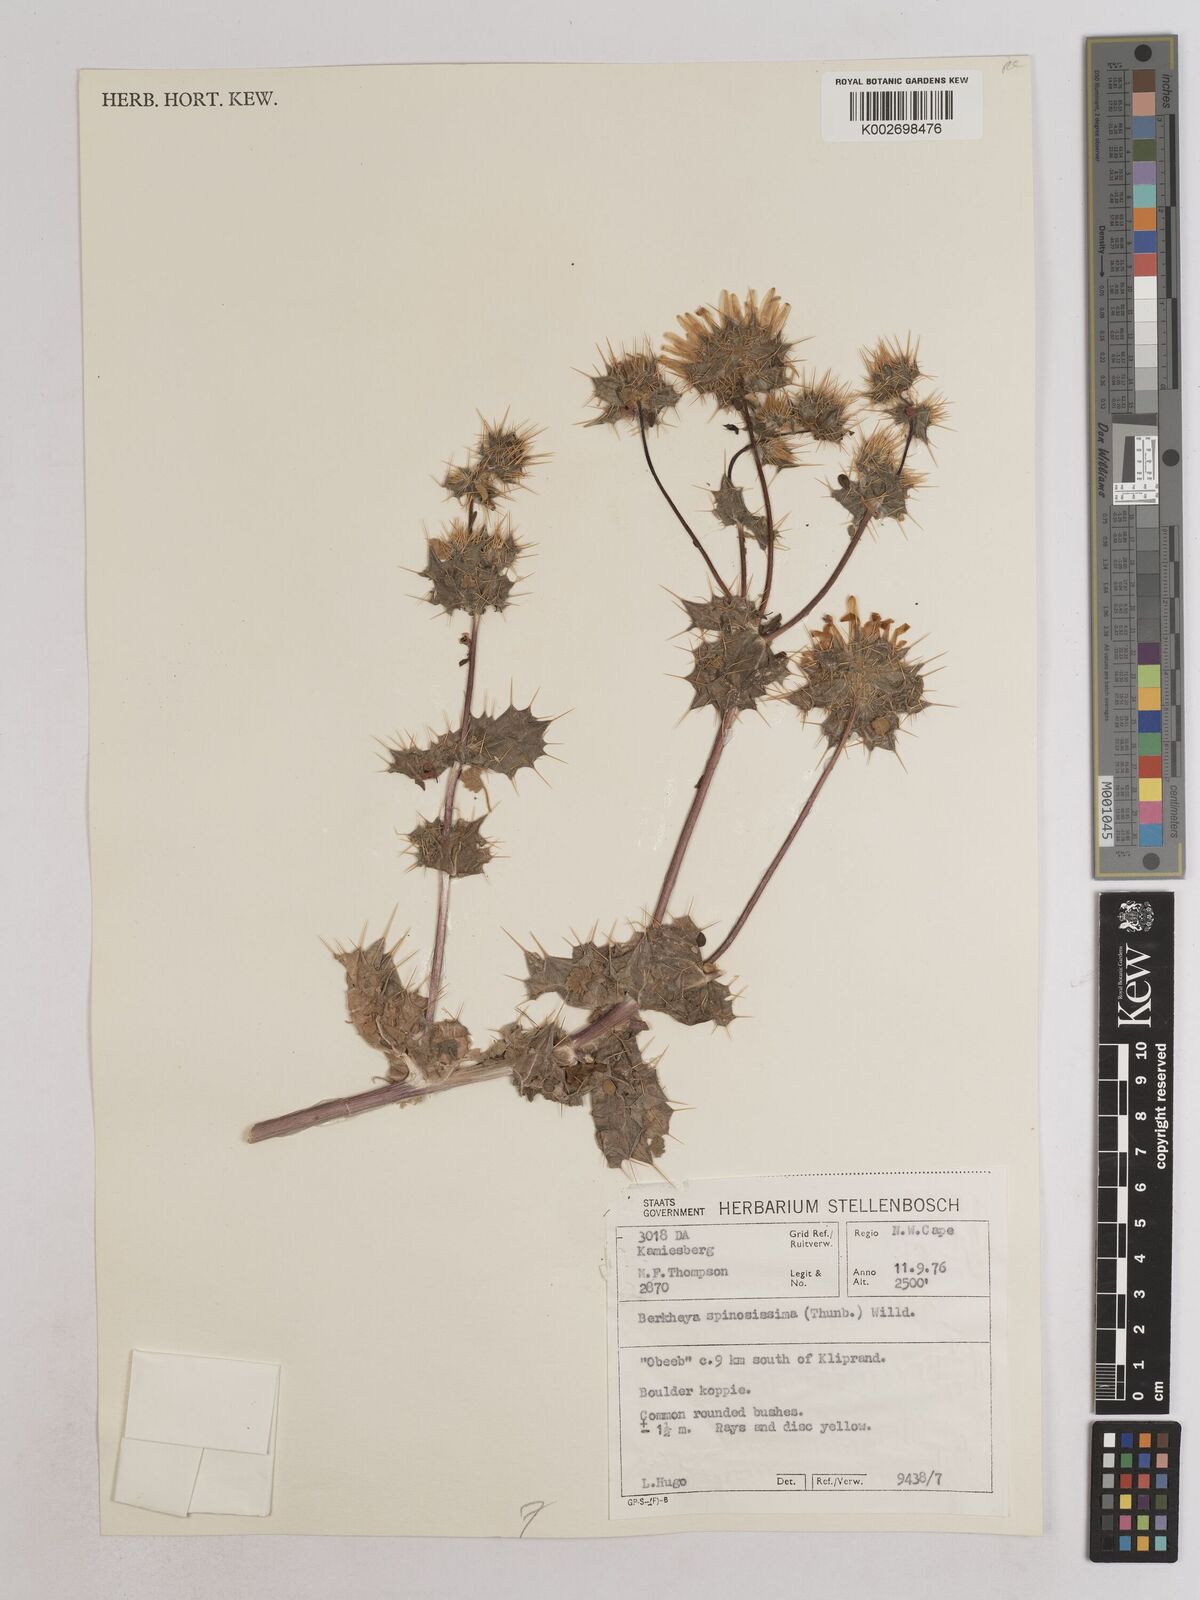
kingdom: Plantae
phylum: Tracheophyta
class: Magnoliopsida
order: Asterales
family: Asteraceae
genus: Berkheya
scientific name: Berkheya spinosissima
